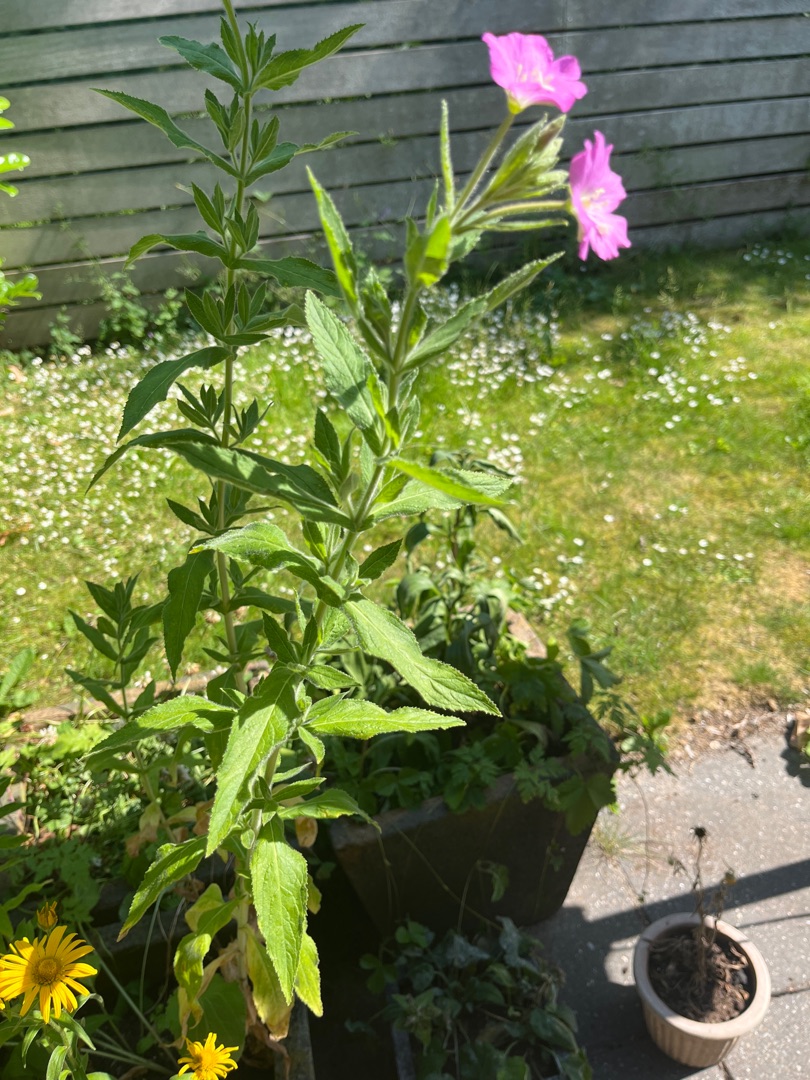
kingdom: Plantae
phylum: Tracheophyta
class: Magnoliopsida
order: Myrtales
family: Onagraceae
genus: Epilobium
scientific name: Epilobium hirsutum
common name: Lådden dueurt
